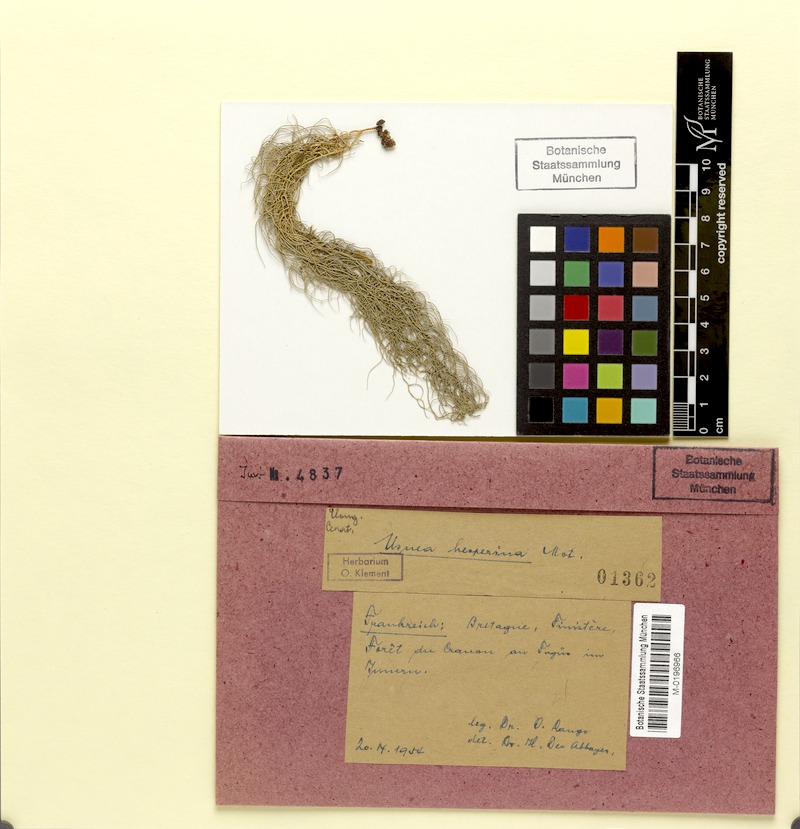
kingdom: Fungi
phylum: Ascomycota
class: Lecanoromycetes
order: Lecanorales
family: Parmeliaceae
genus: Usnea
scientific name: Usnea subgracilis
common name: Beard lichen
